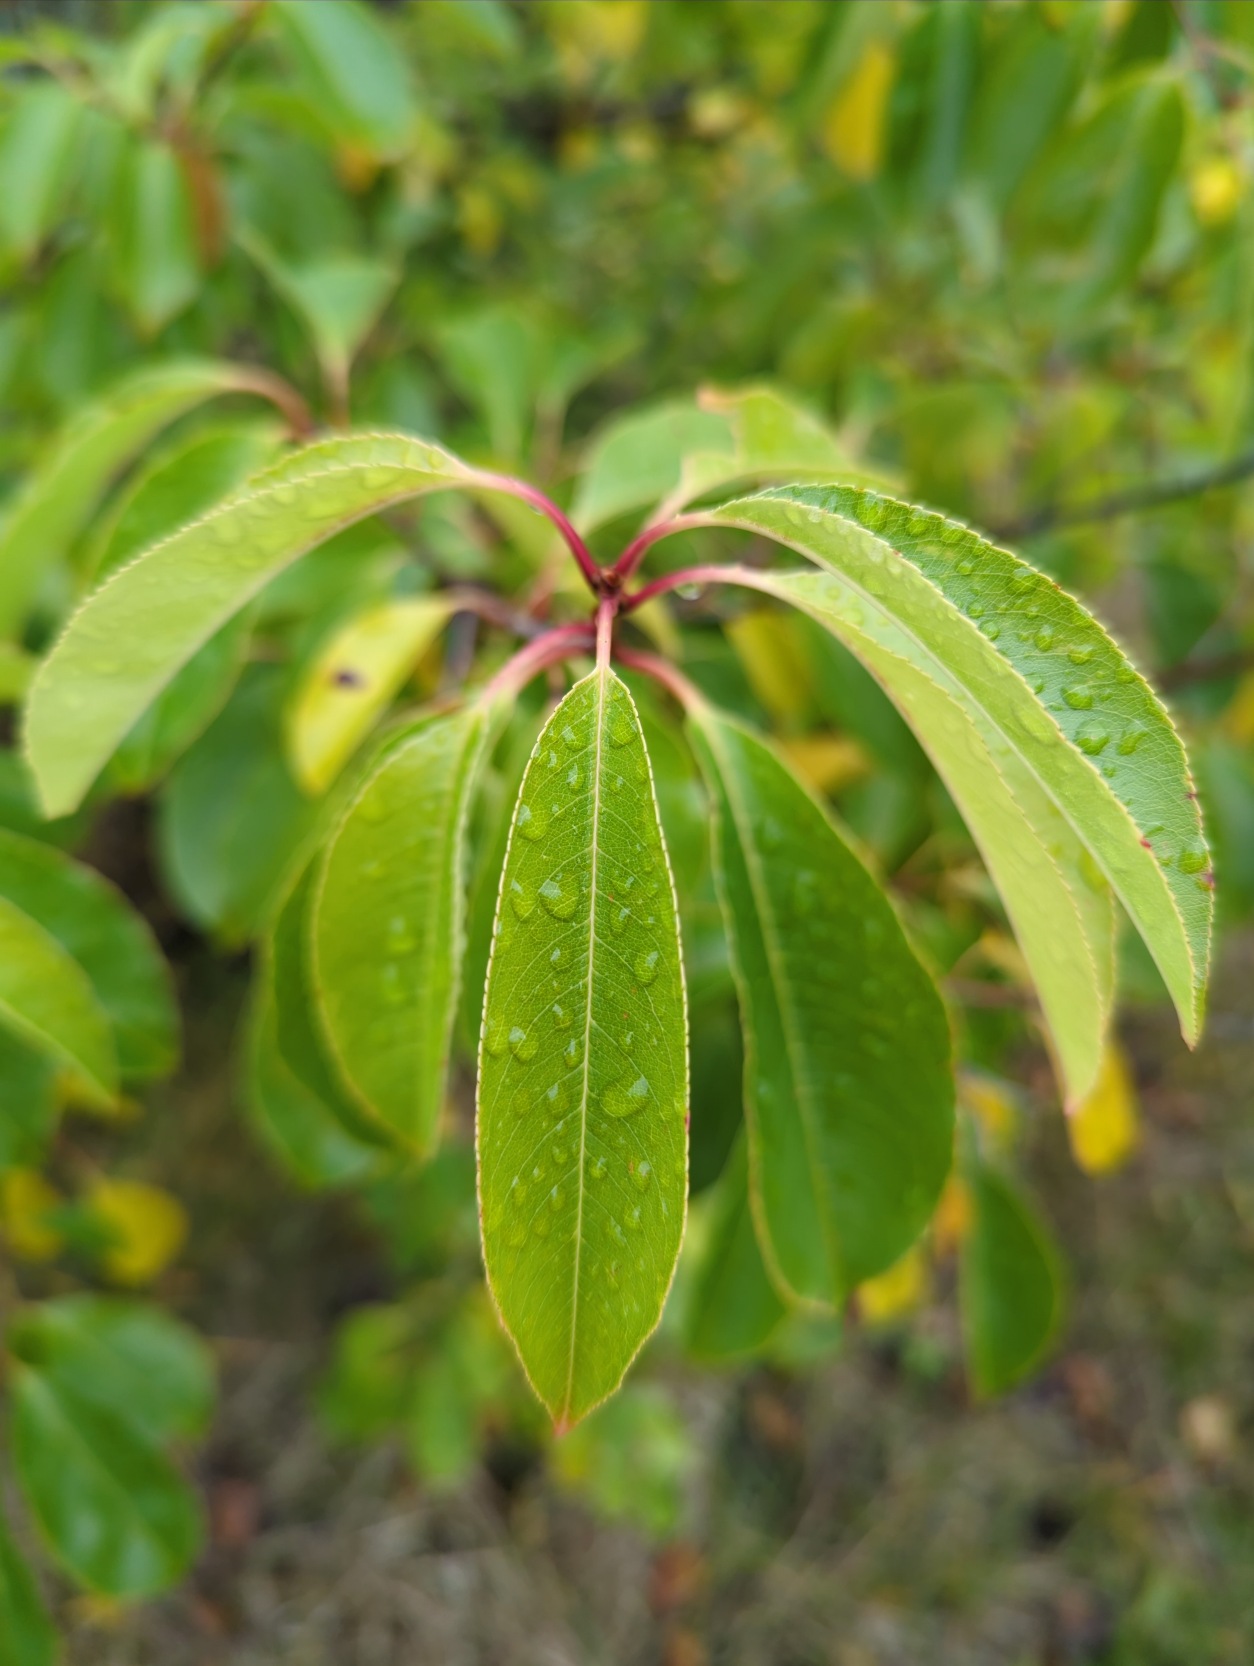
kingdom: Plantae
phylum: Tracheophyta
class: Magnoliopsida
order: Rosales
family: Rosaceae
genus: Prunus
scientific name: Prunus serotina
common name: Glansbladet hæg
